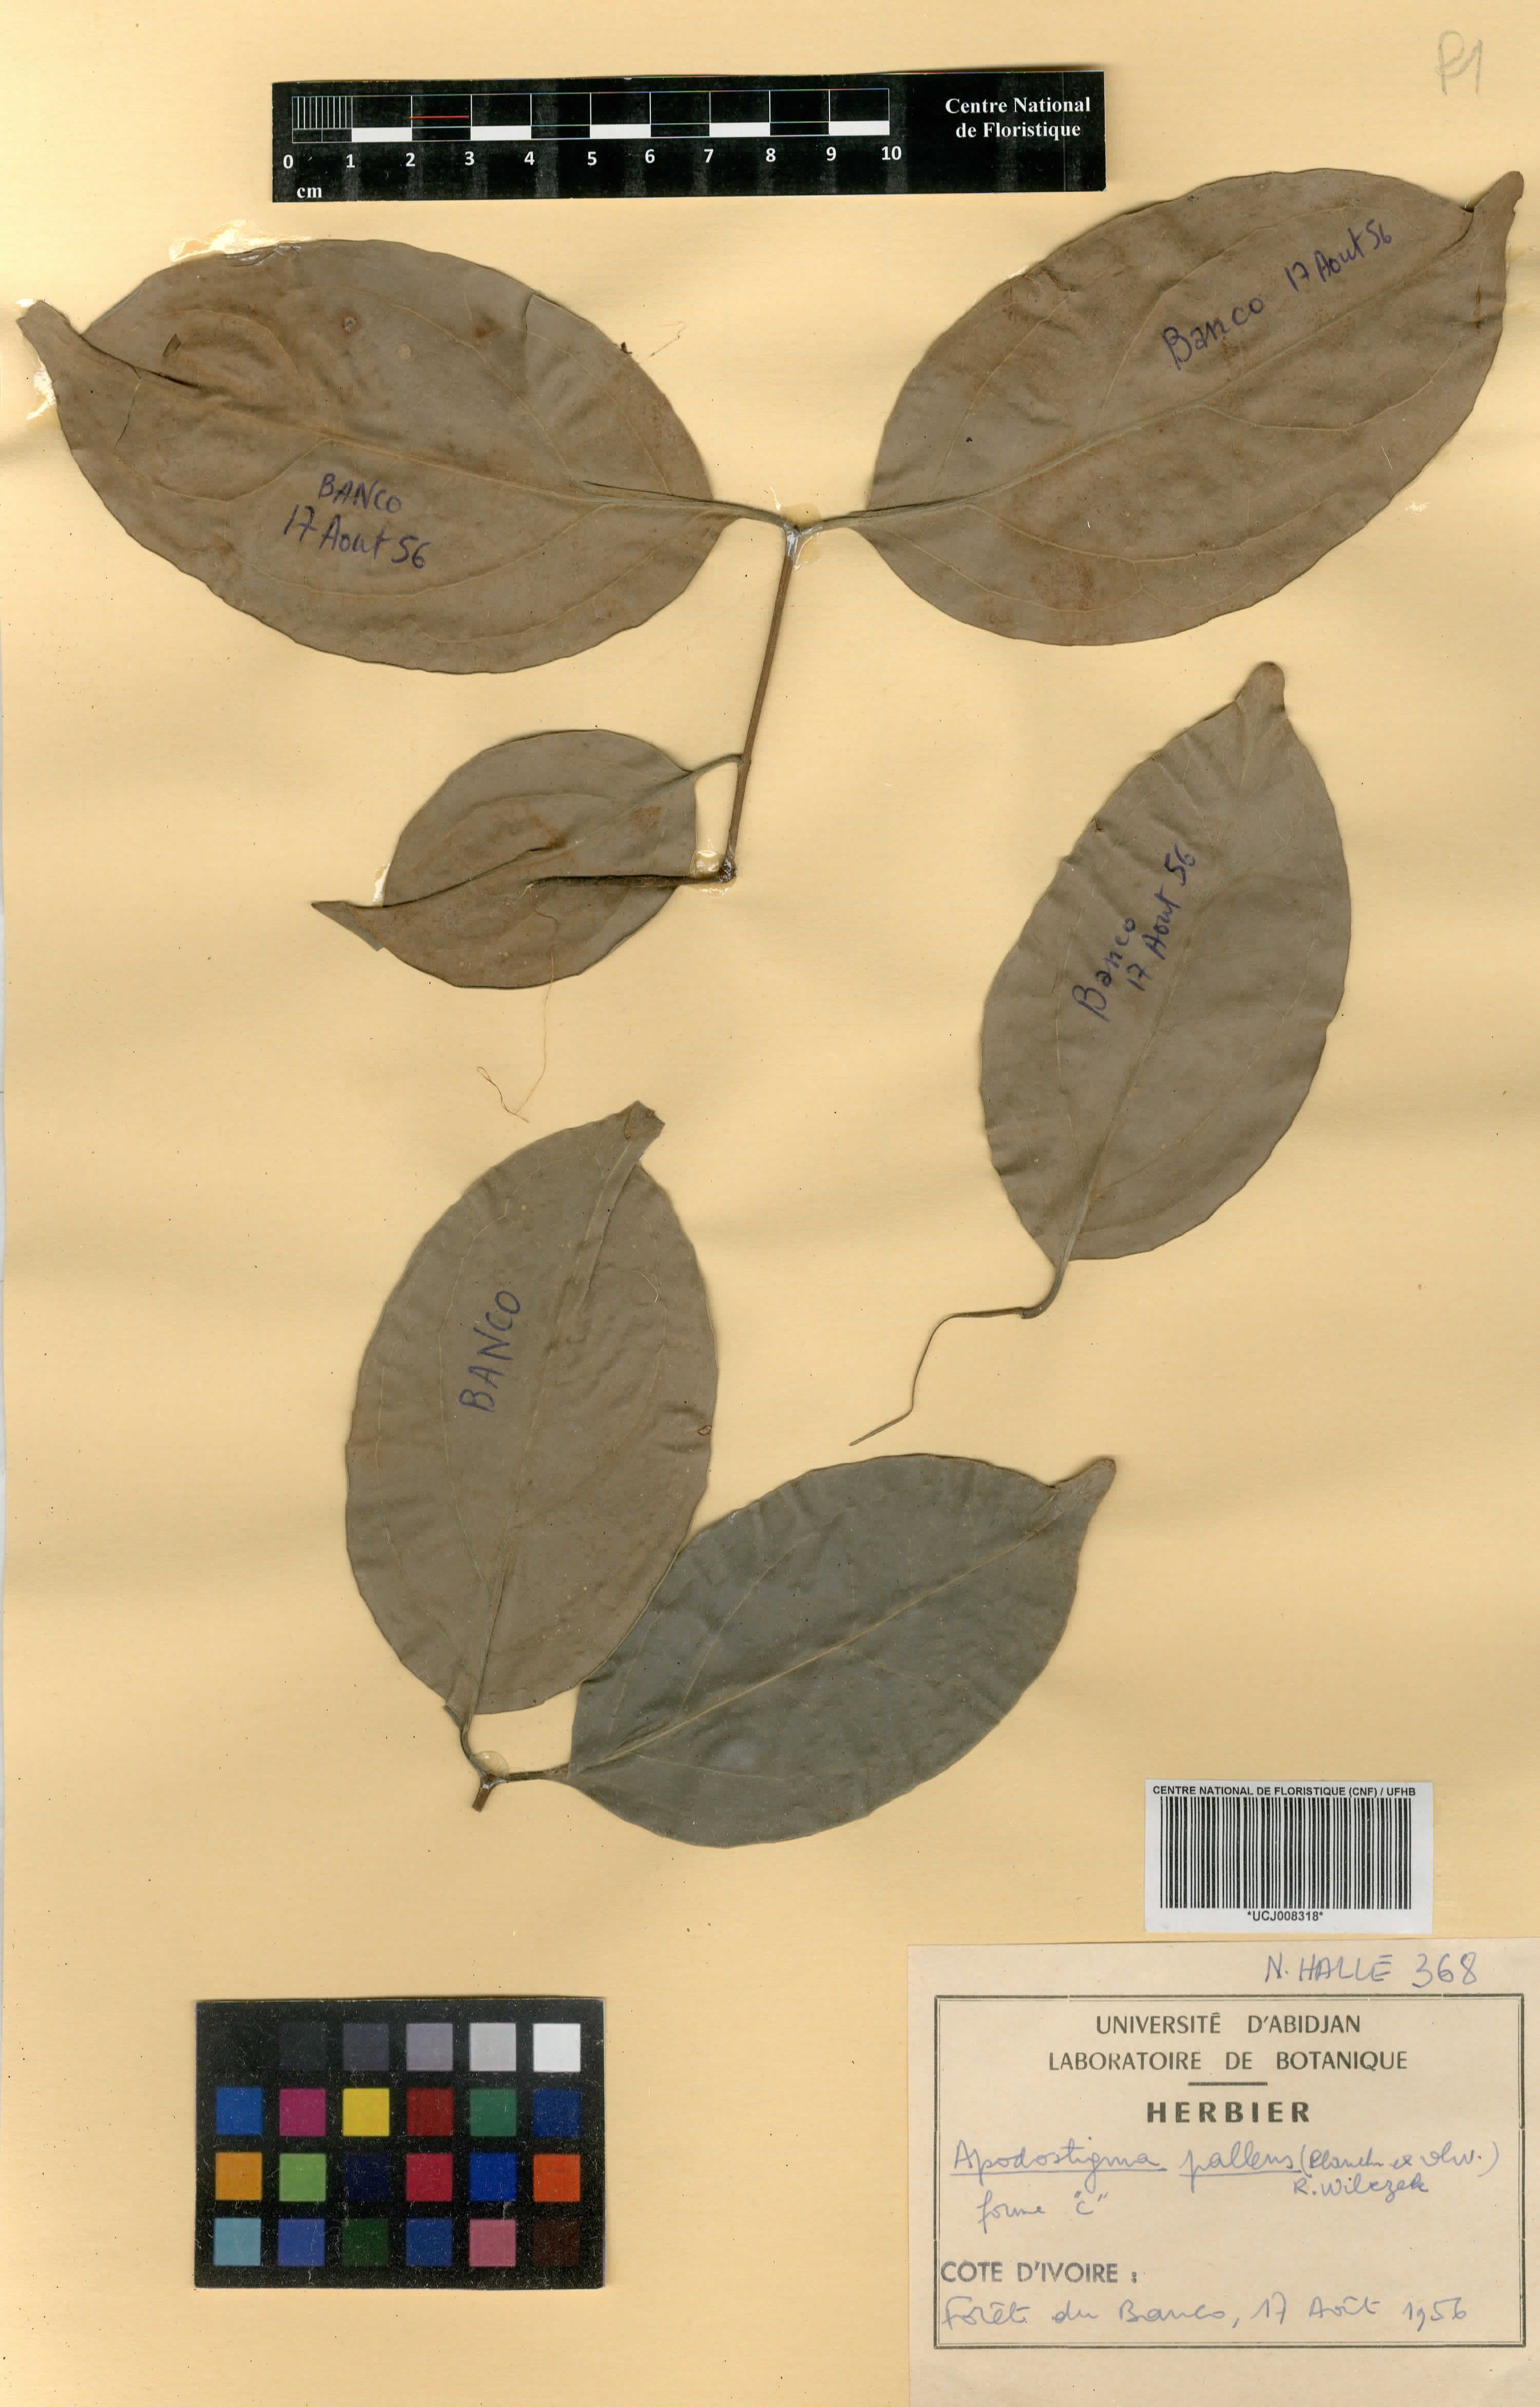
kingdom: Plantae
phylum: Tracheophyta
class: Magnoliopsida
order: Celastrales
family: Celastraceae
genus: Apodostigma
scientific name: Apodostigma pallens
